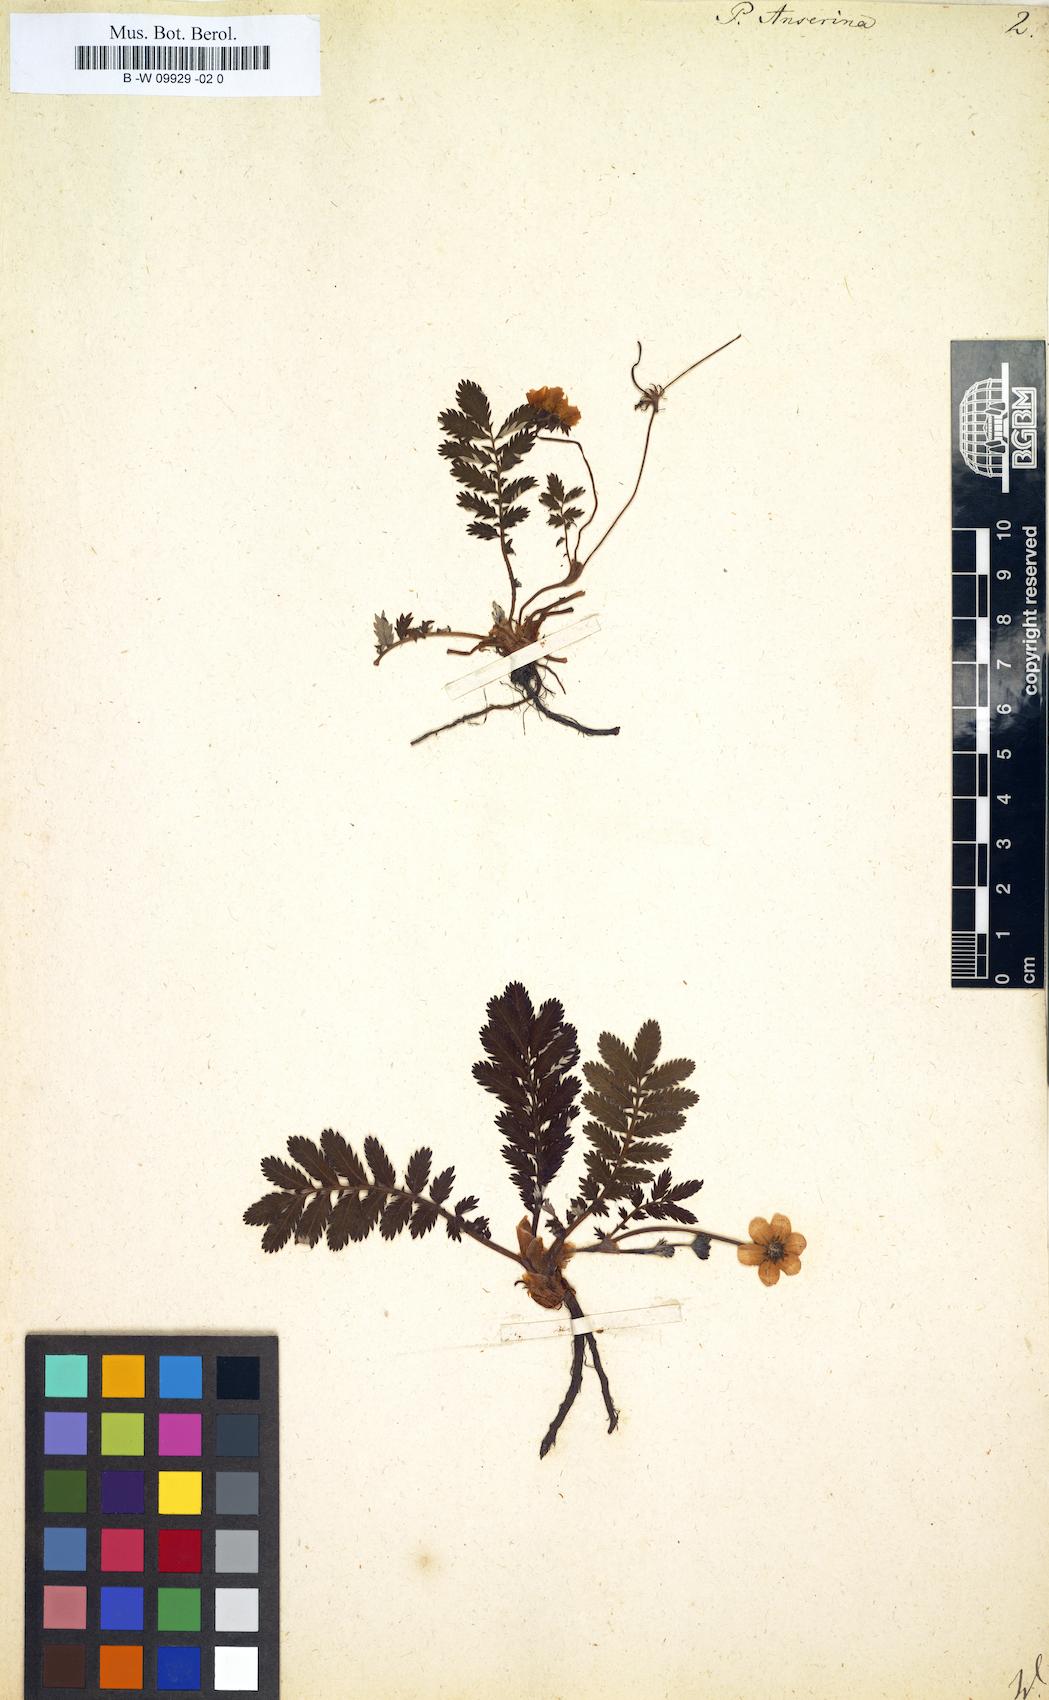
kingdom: Plantae
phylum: Tracheophyta
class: Magnoliopsida
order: Rosales
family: Rosaceae
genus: Argentina
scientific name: Argentina anserina
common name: Common silverweed
